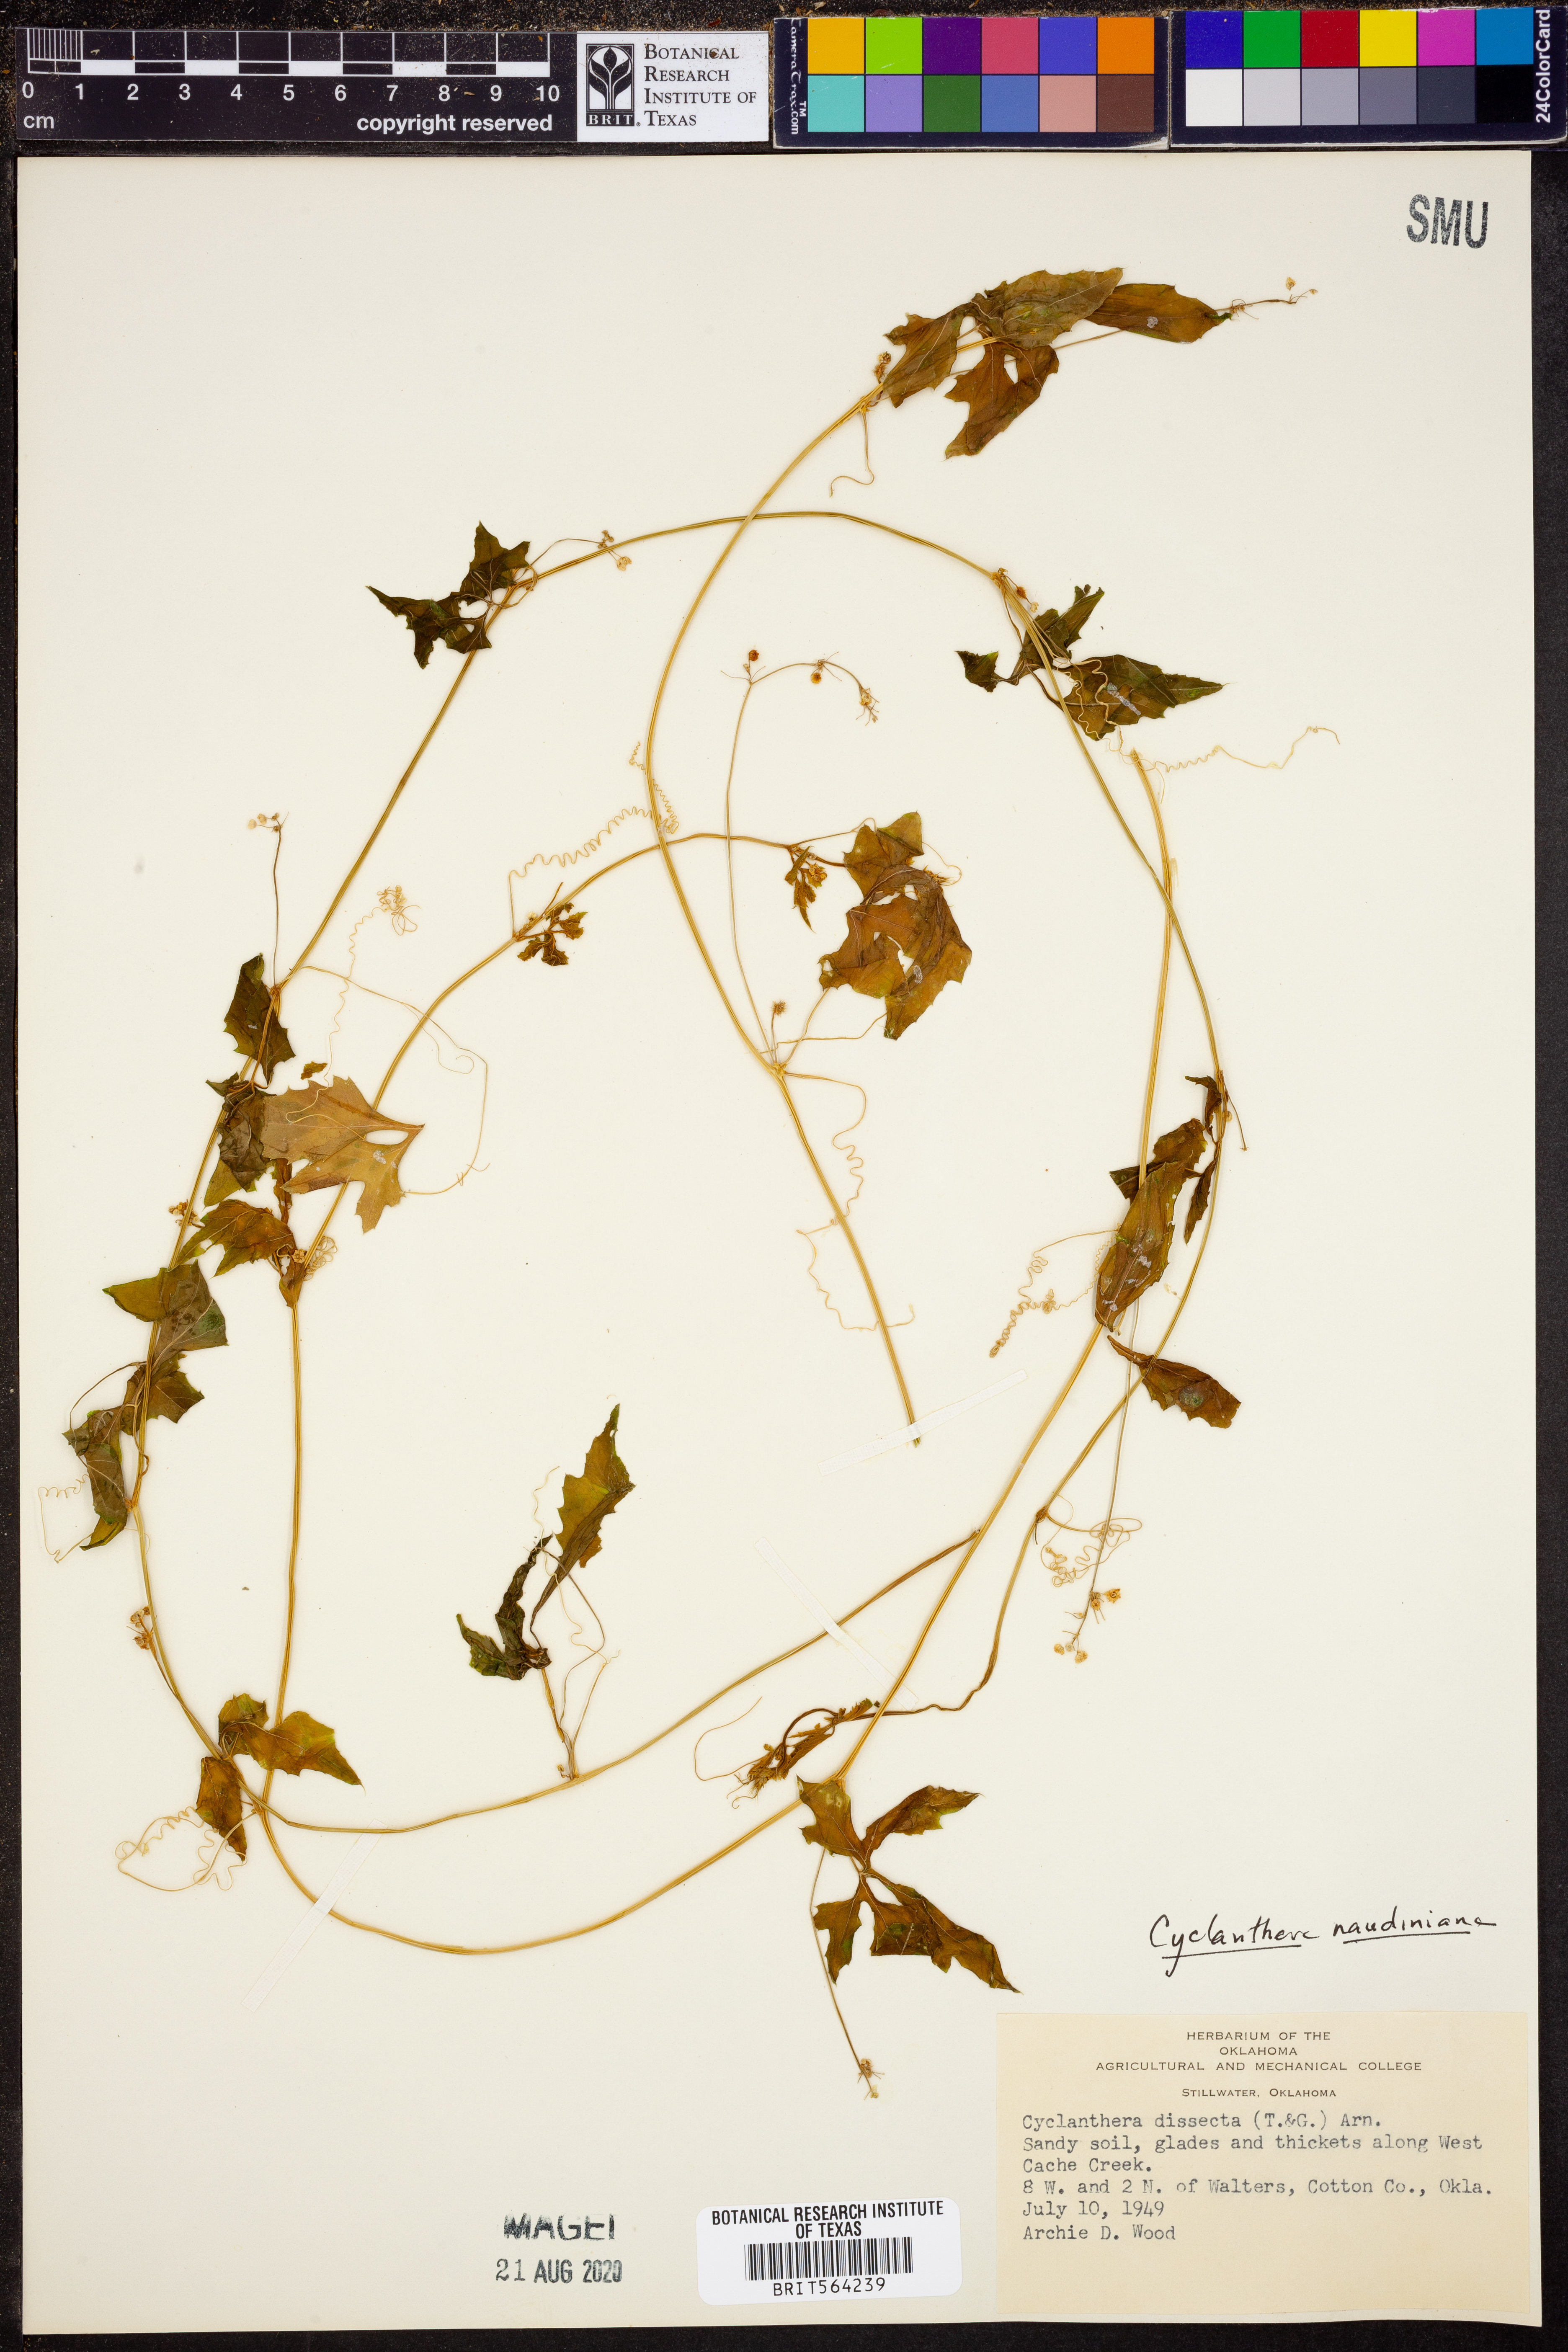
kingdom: Plantae
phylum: Tracheophyta
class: Magnoliopsida
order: Cucurbitales
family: Cucurbitaceae
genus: Cyclanthera
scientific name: Cyclanthera naudiniana
